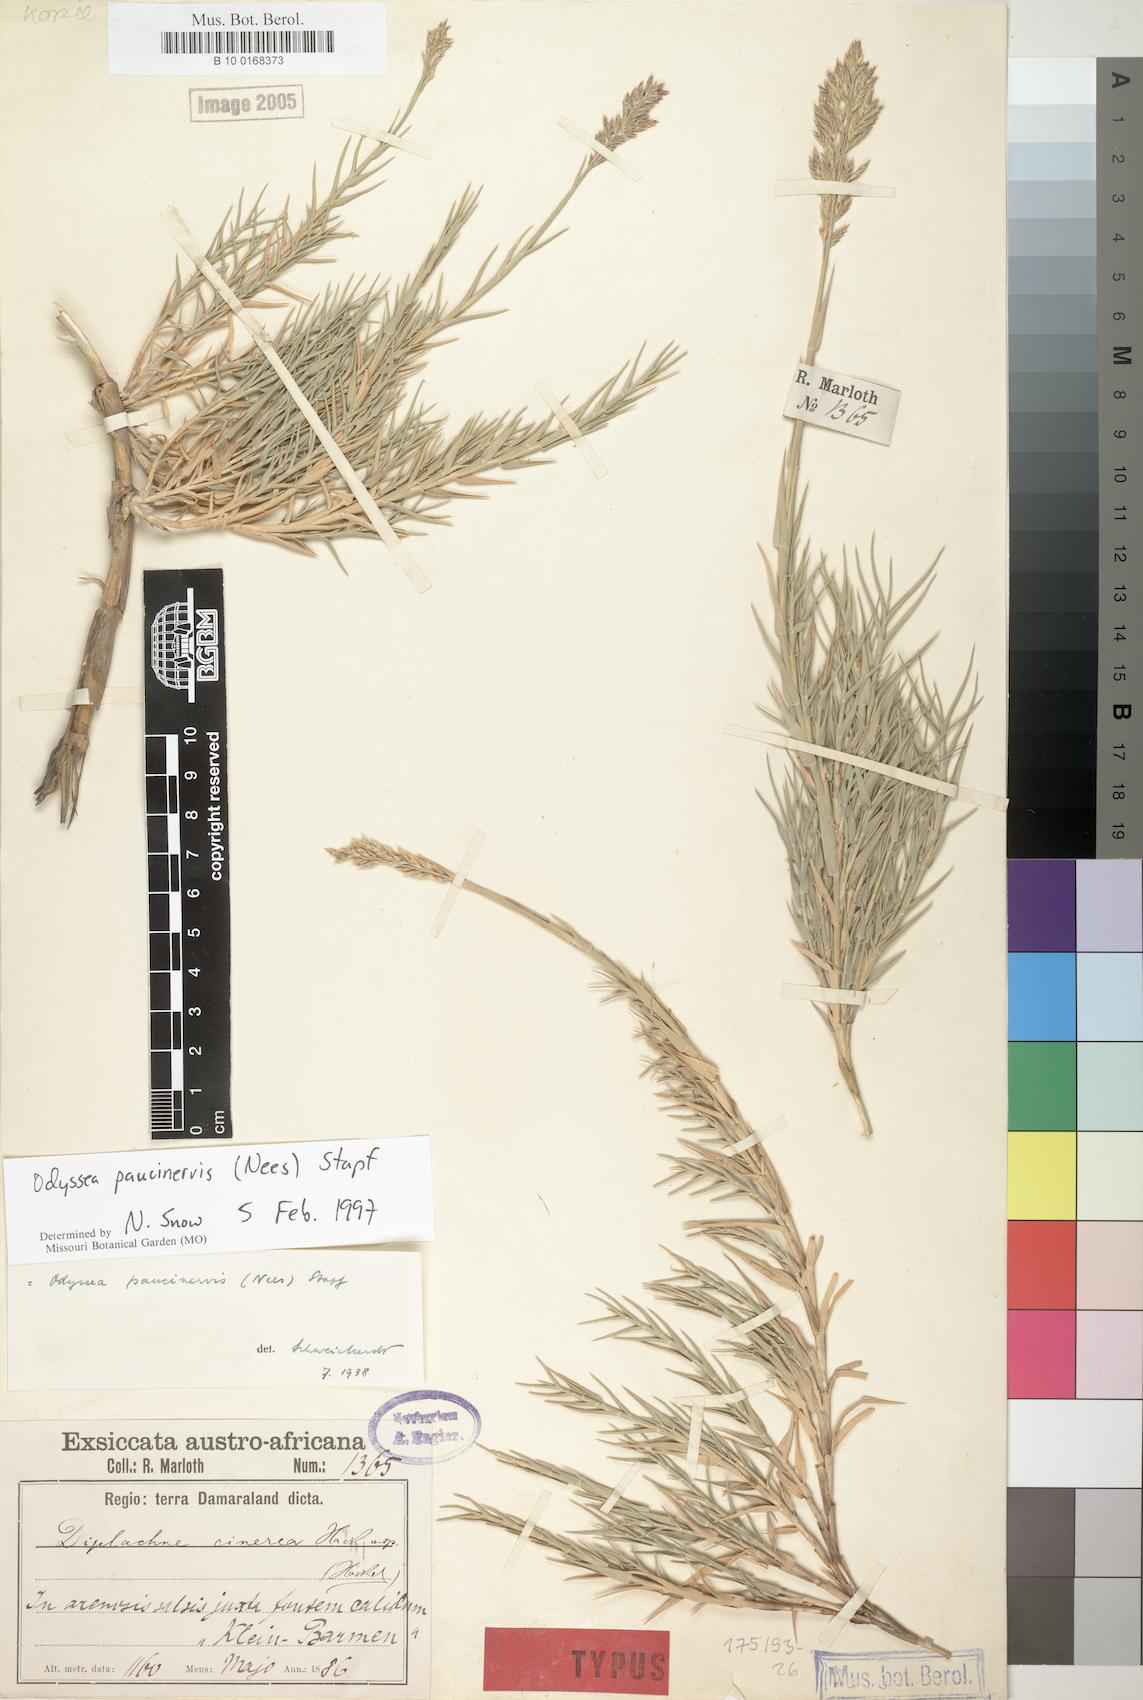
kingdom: Plantae
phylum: Tracheophyta
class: Liliopsida
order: Poales
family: Poaceae
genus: Odyssea
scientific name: Odyssea paucinervis
